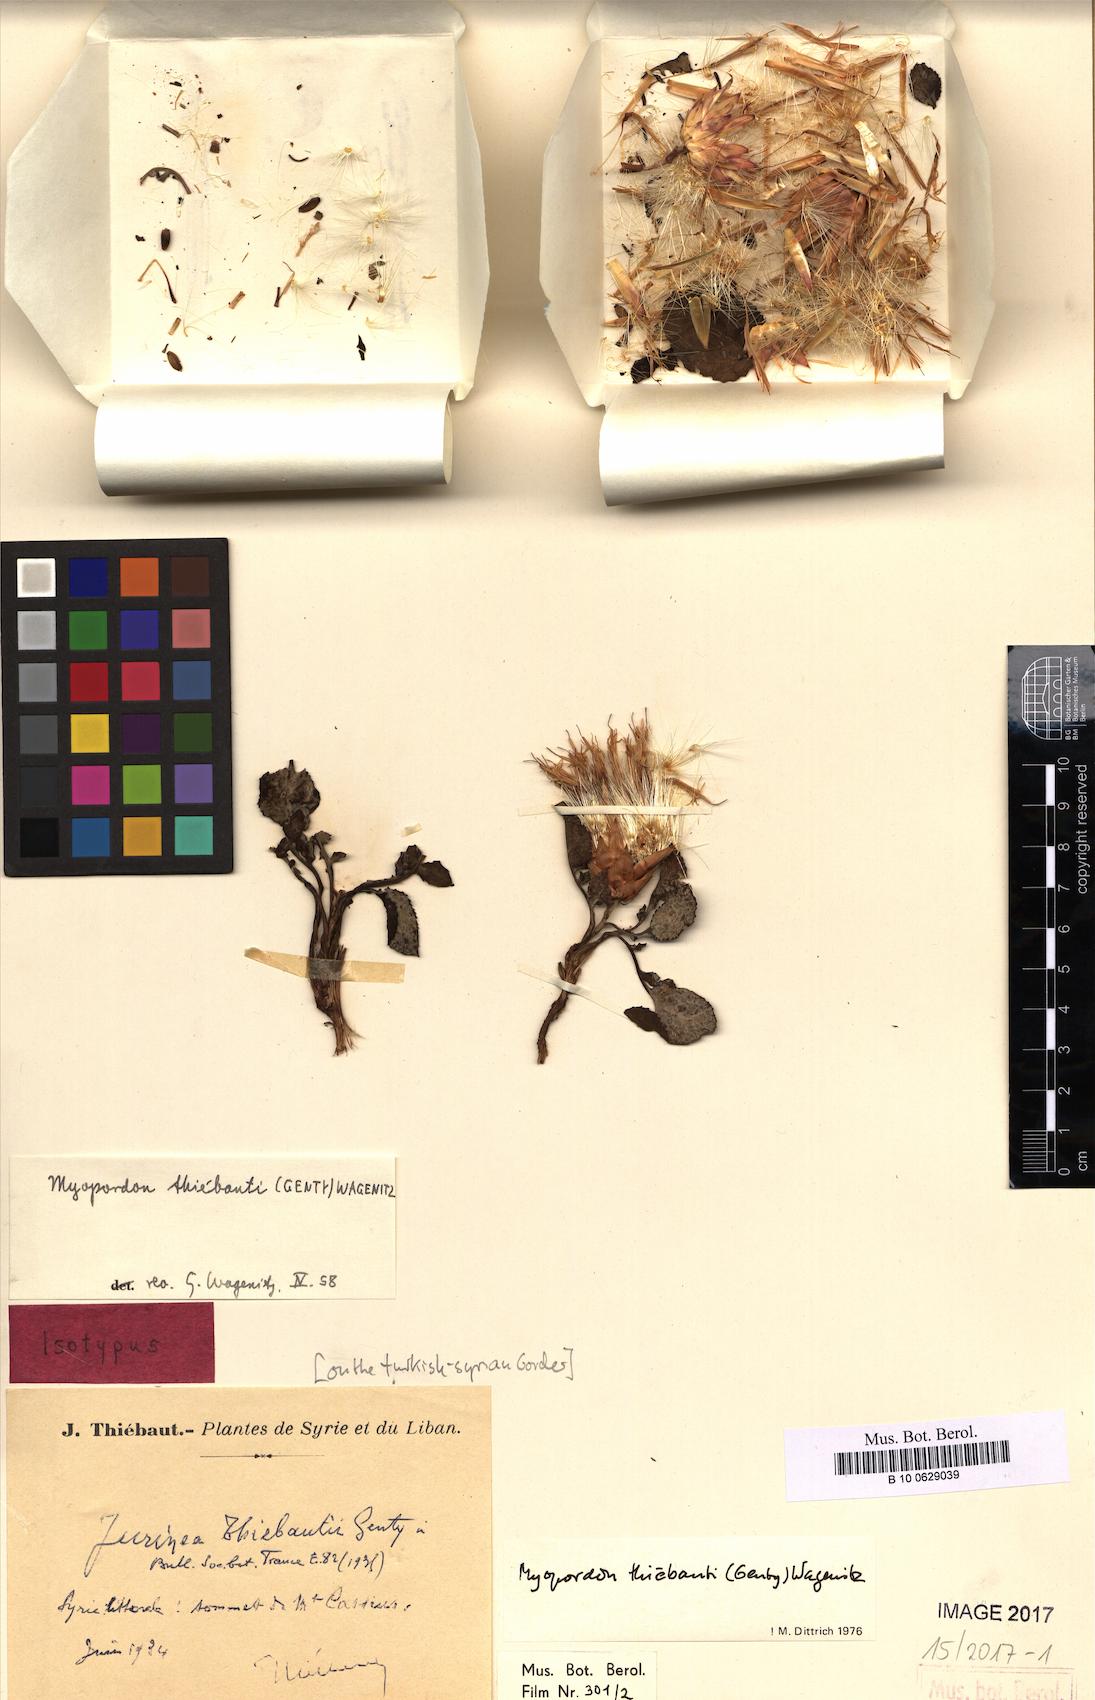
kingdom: Plantae
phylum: Tracheophyta
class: Magnoliopsida
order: Asterales
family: Asteraceae
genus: Myopordon
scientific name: Myopordon
